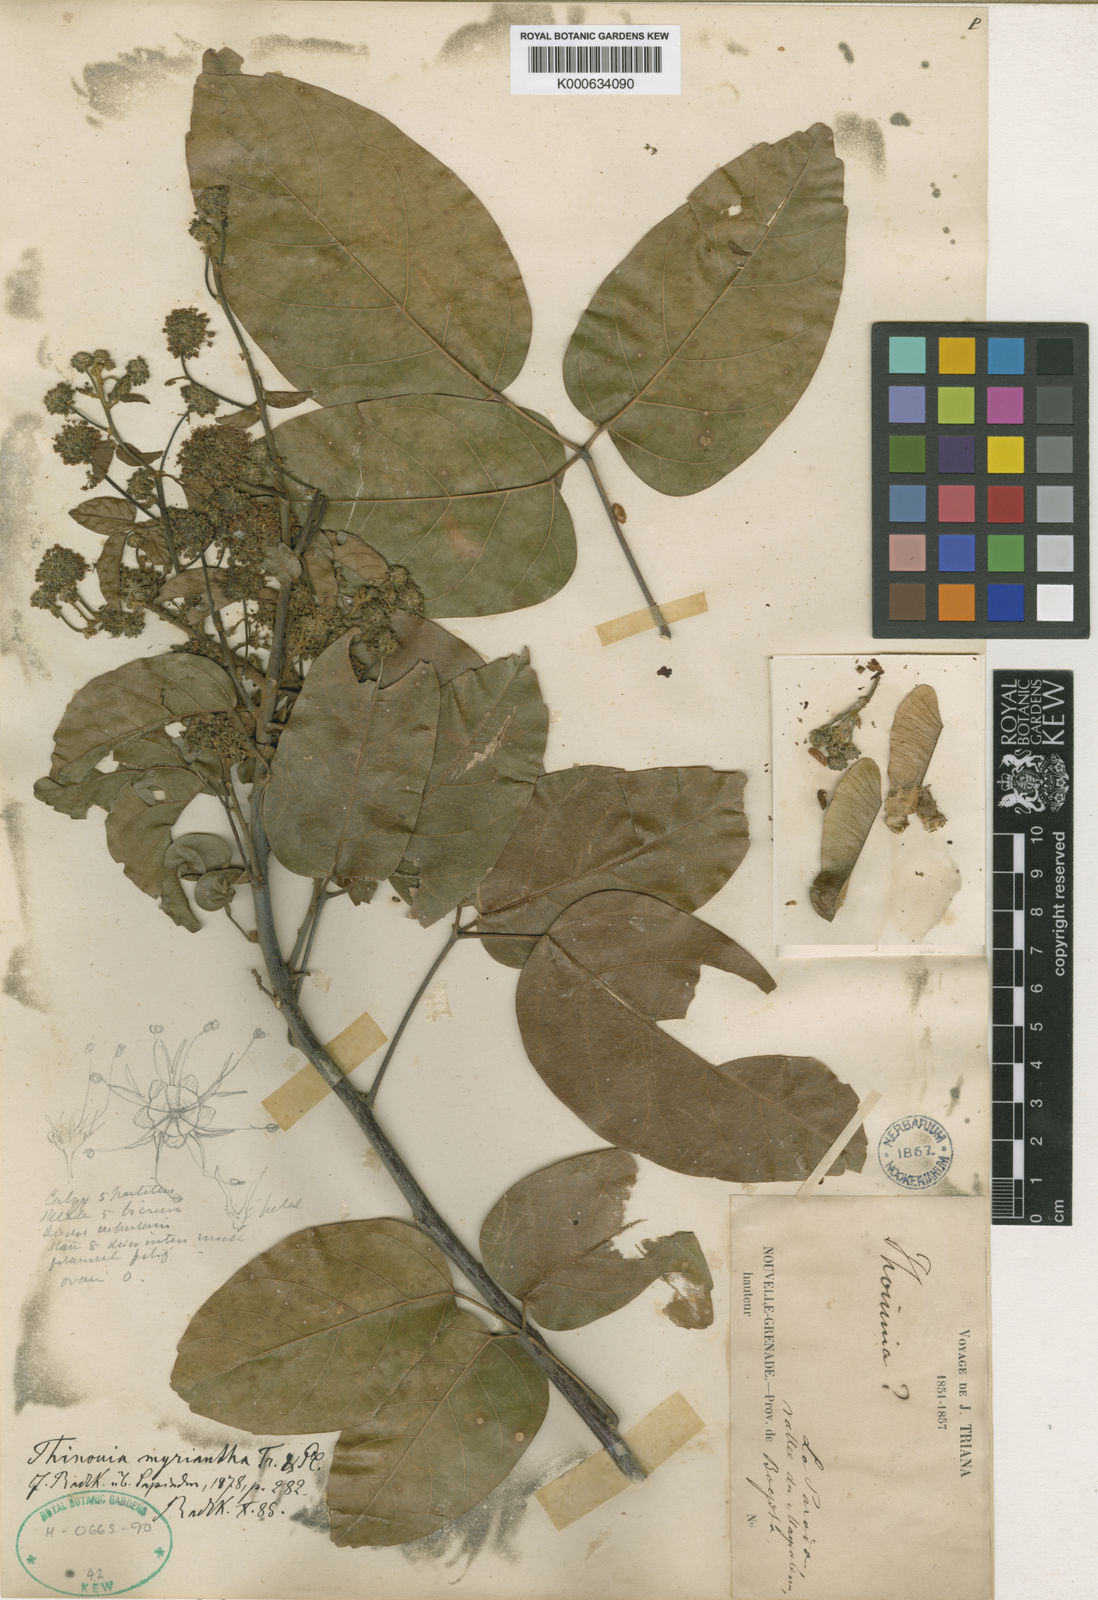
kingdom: Plantae
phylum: Tracheophyta
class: Magnoliopsida
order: Sapindales
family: Sapindaceae
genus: Thinouia
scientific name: Thinouia myriantha
